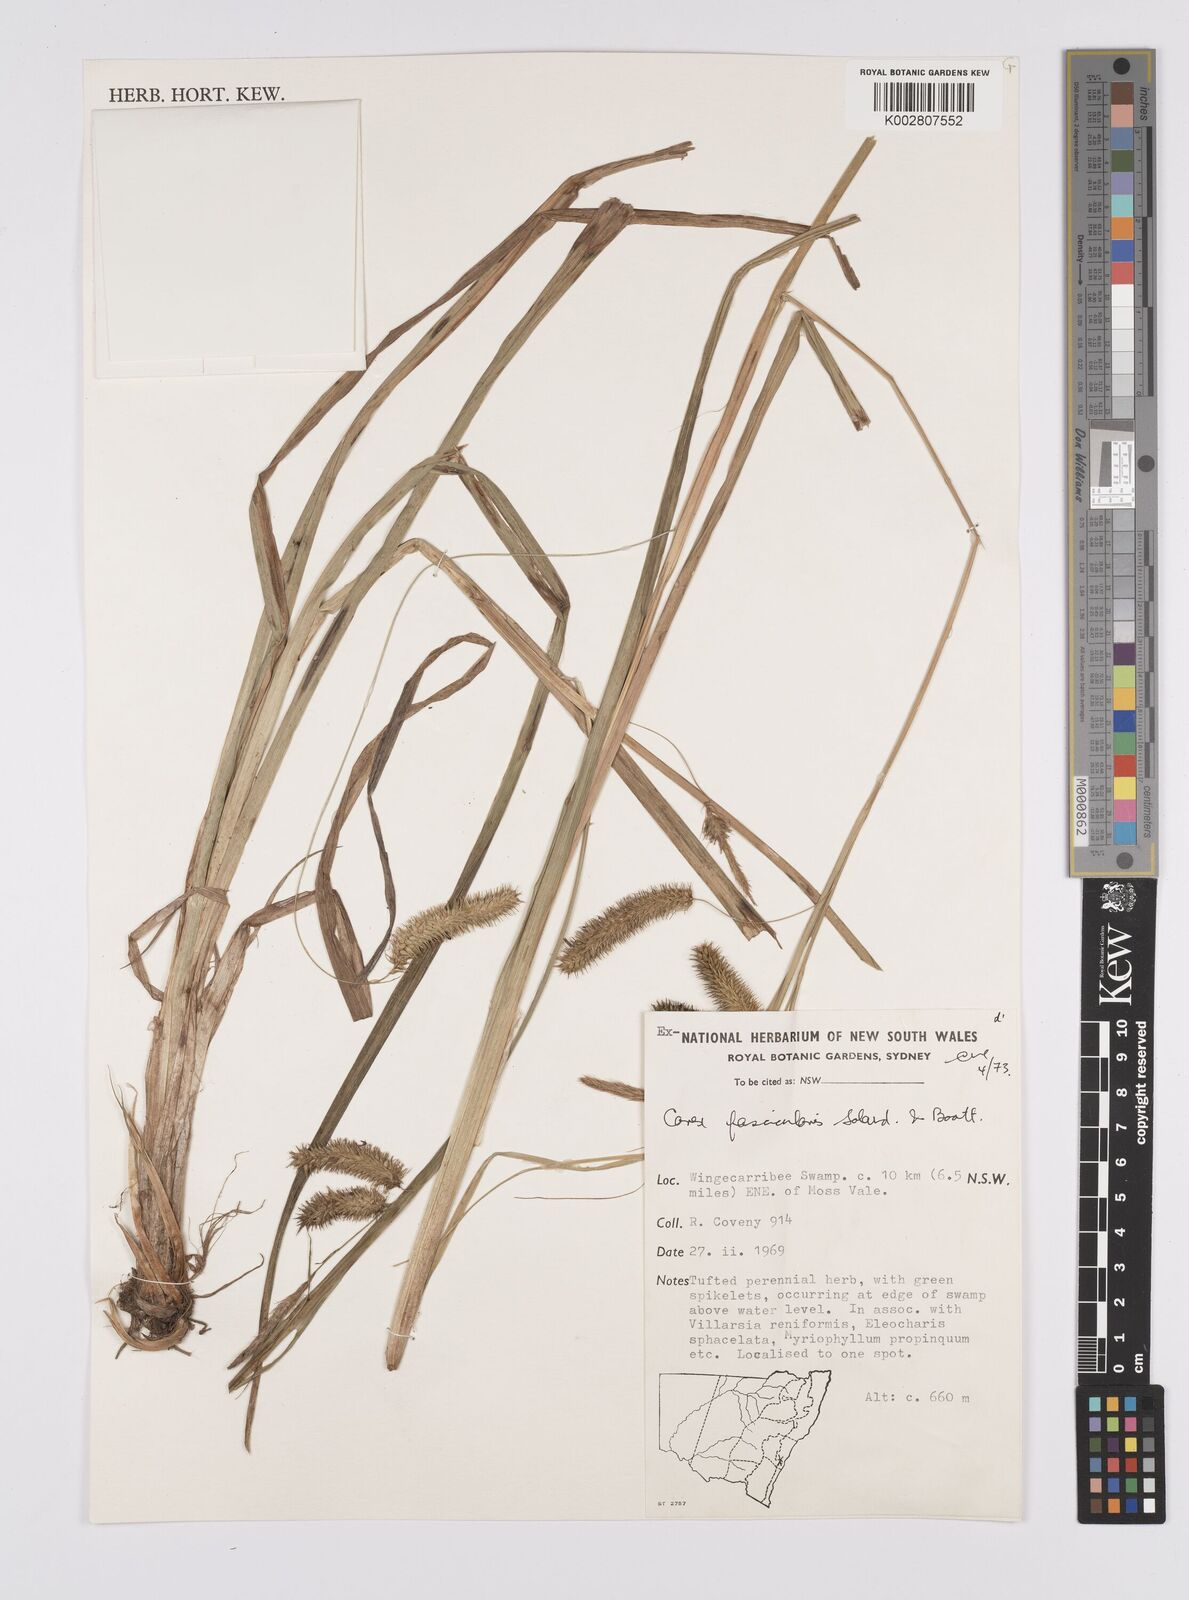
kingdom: Plantae
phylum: Tracheophyta
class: Liliopsida
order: Poales
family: Cyperaceae
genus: Carex
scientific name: Carex fascicularis
